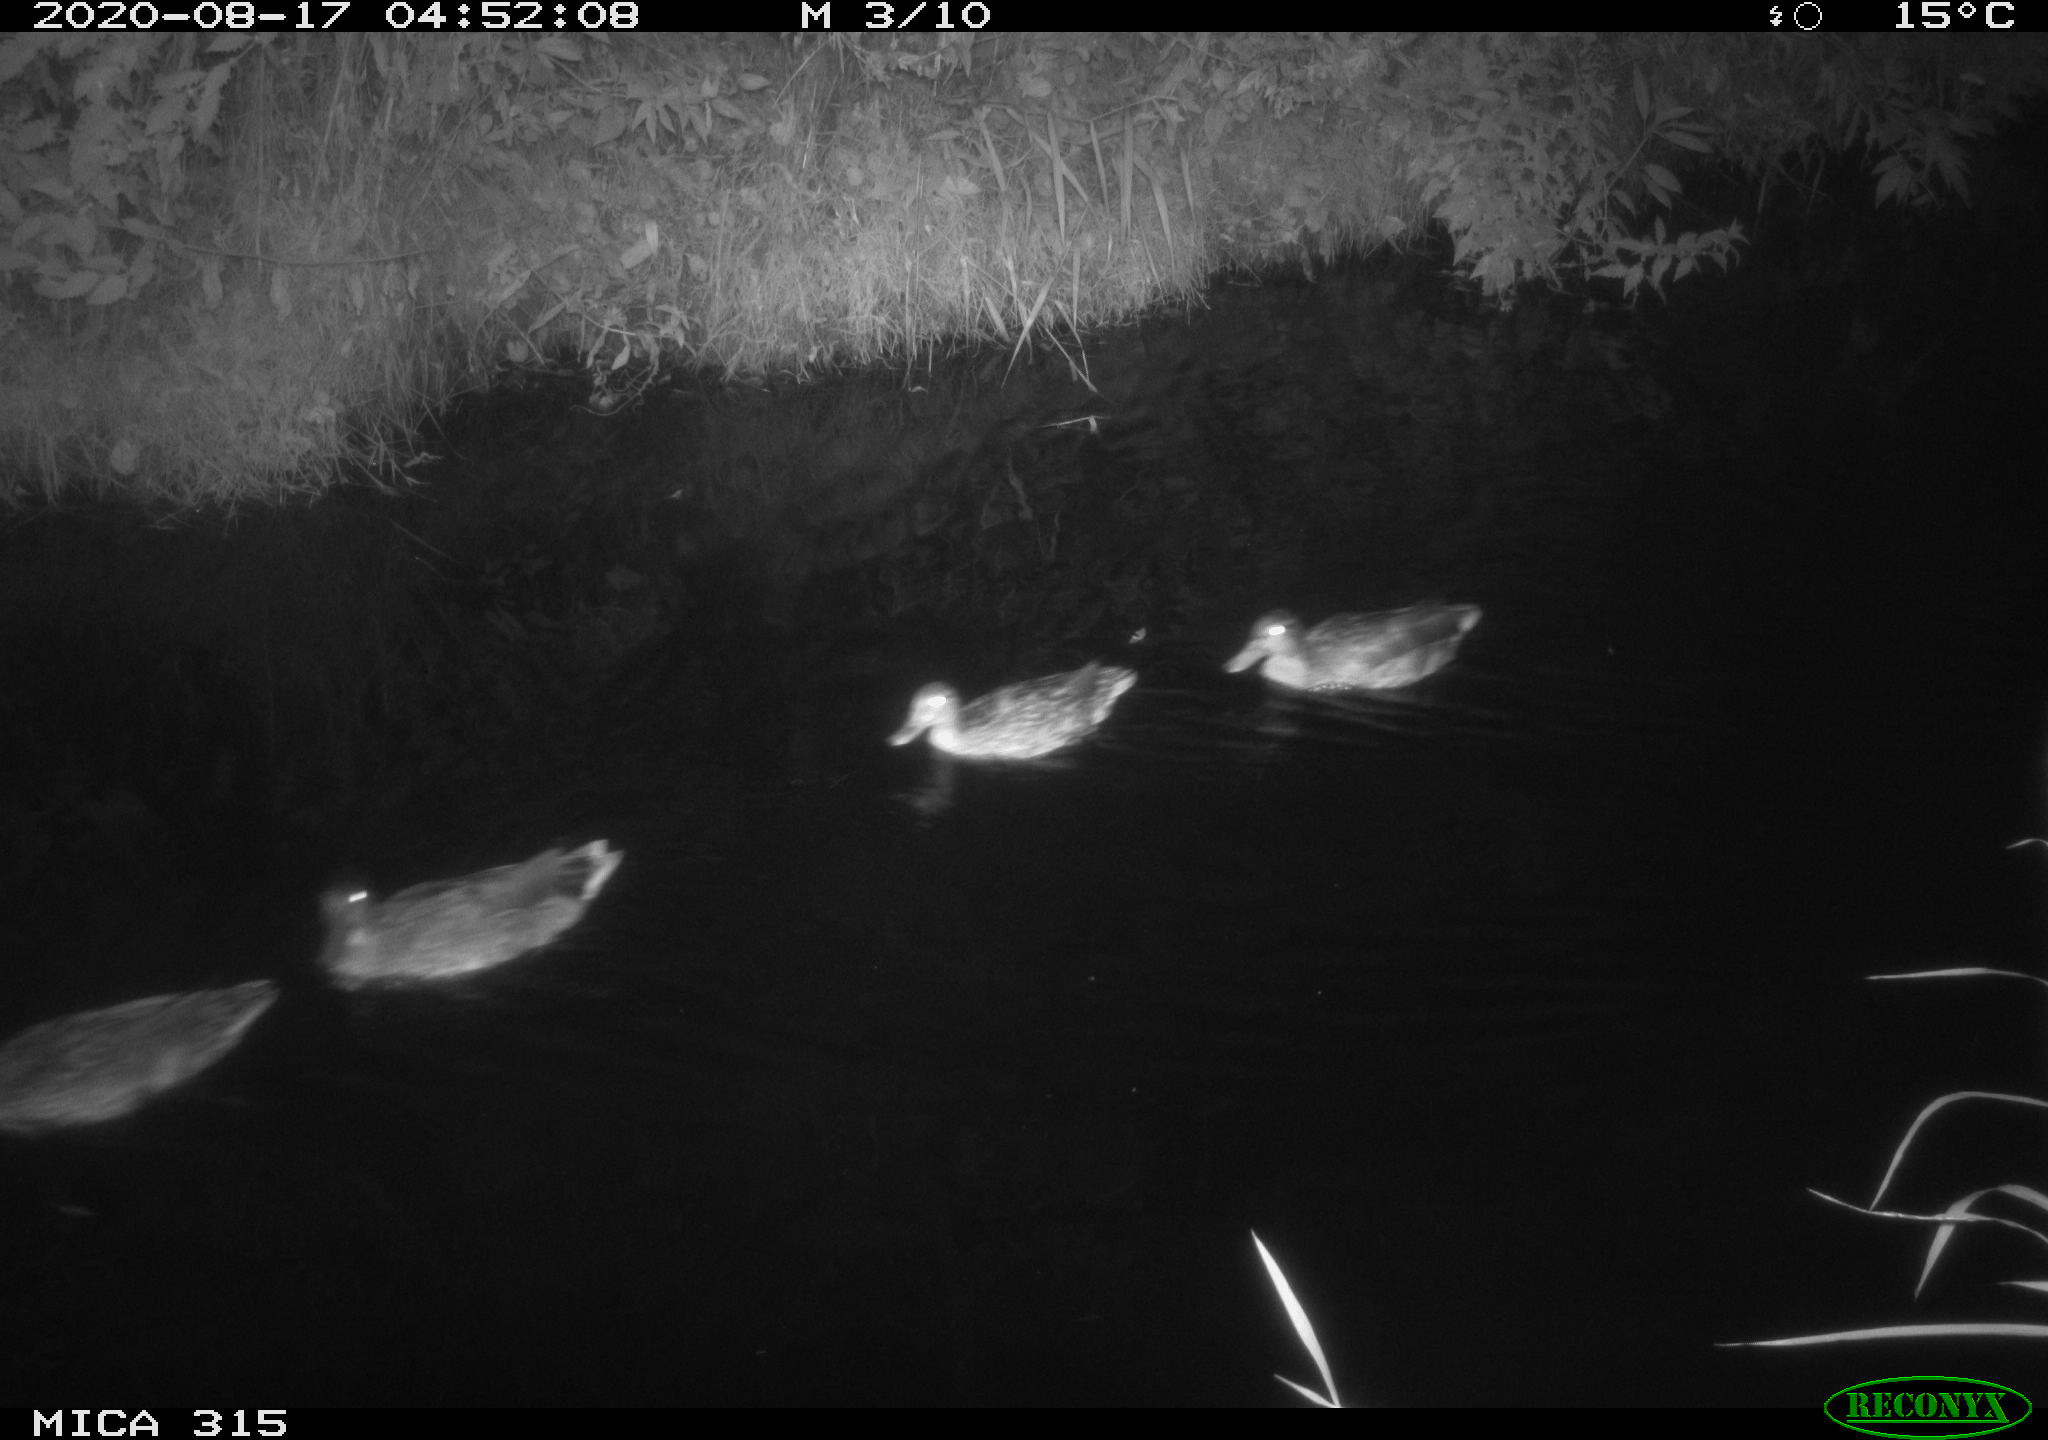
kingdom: Animalia
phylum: Chordata
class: Aves
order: Anseriformes
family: Anatidae
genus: Anas
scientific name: Anas platyrhynchos
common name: Mallard
